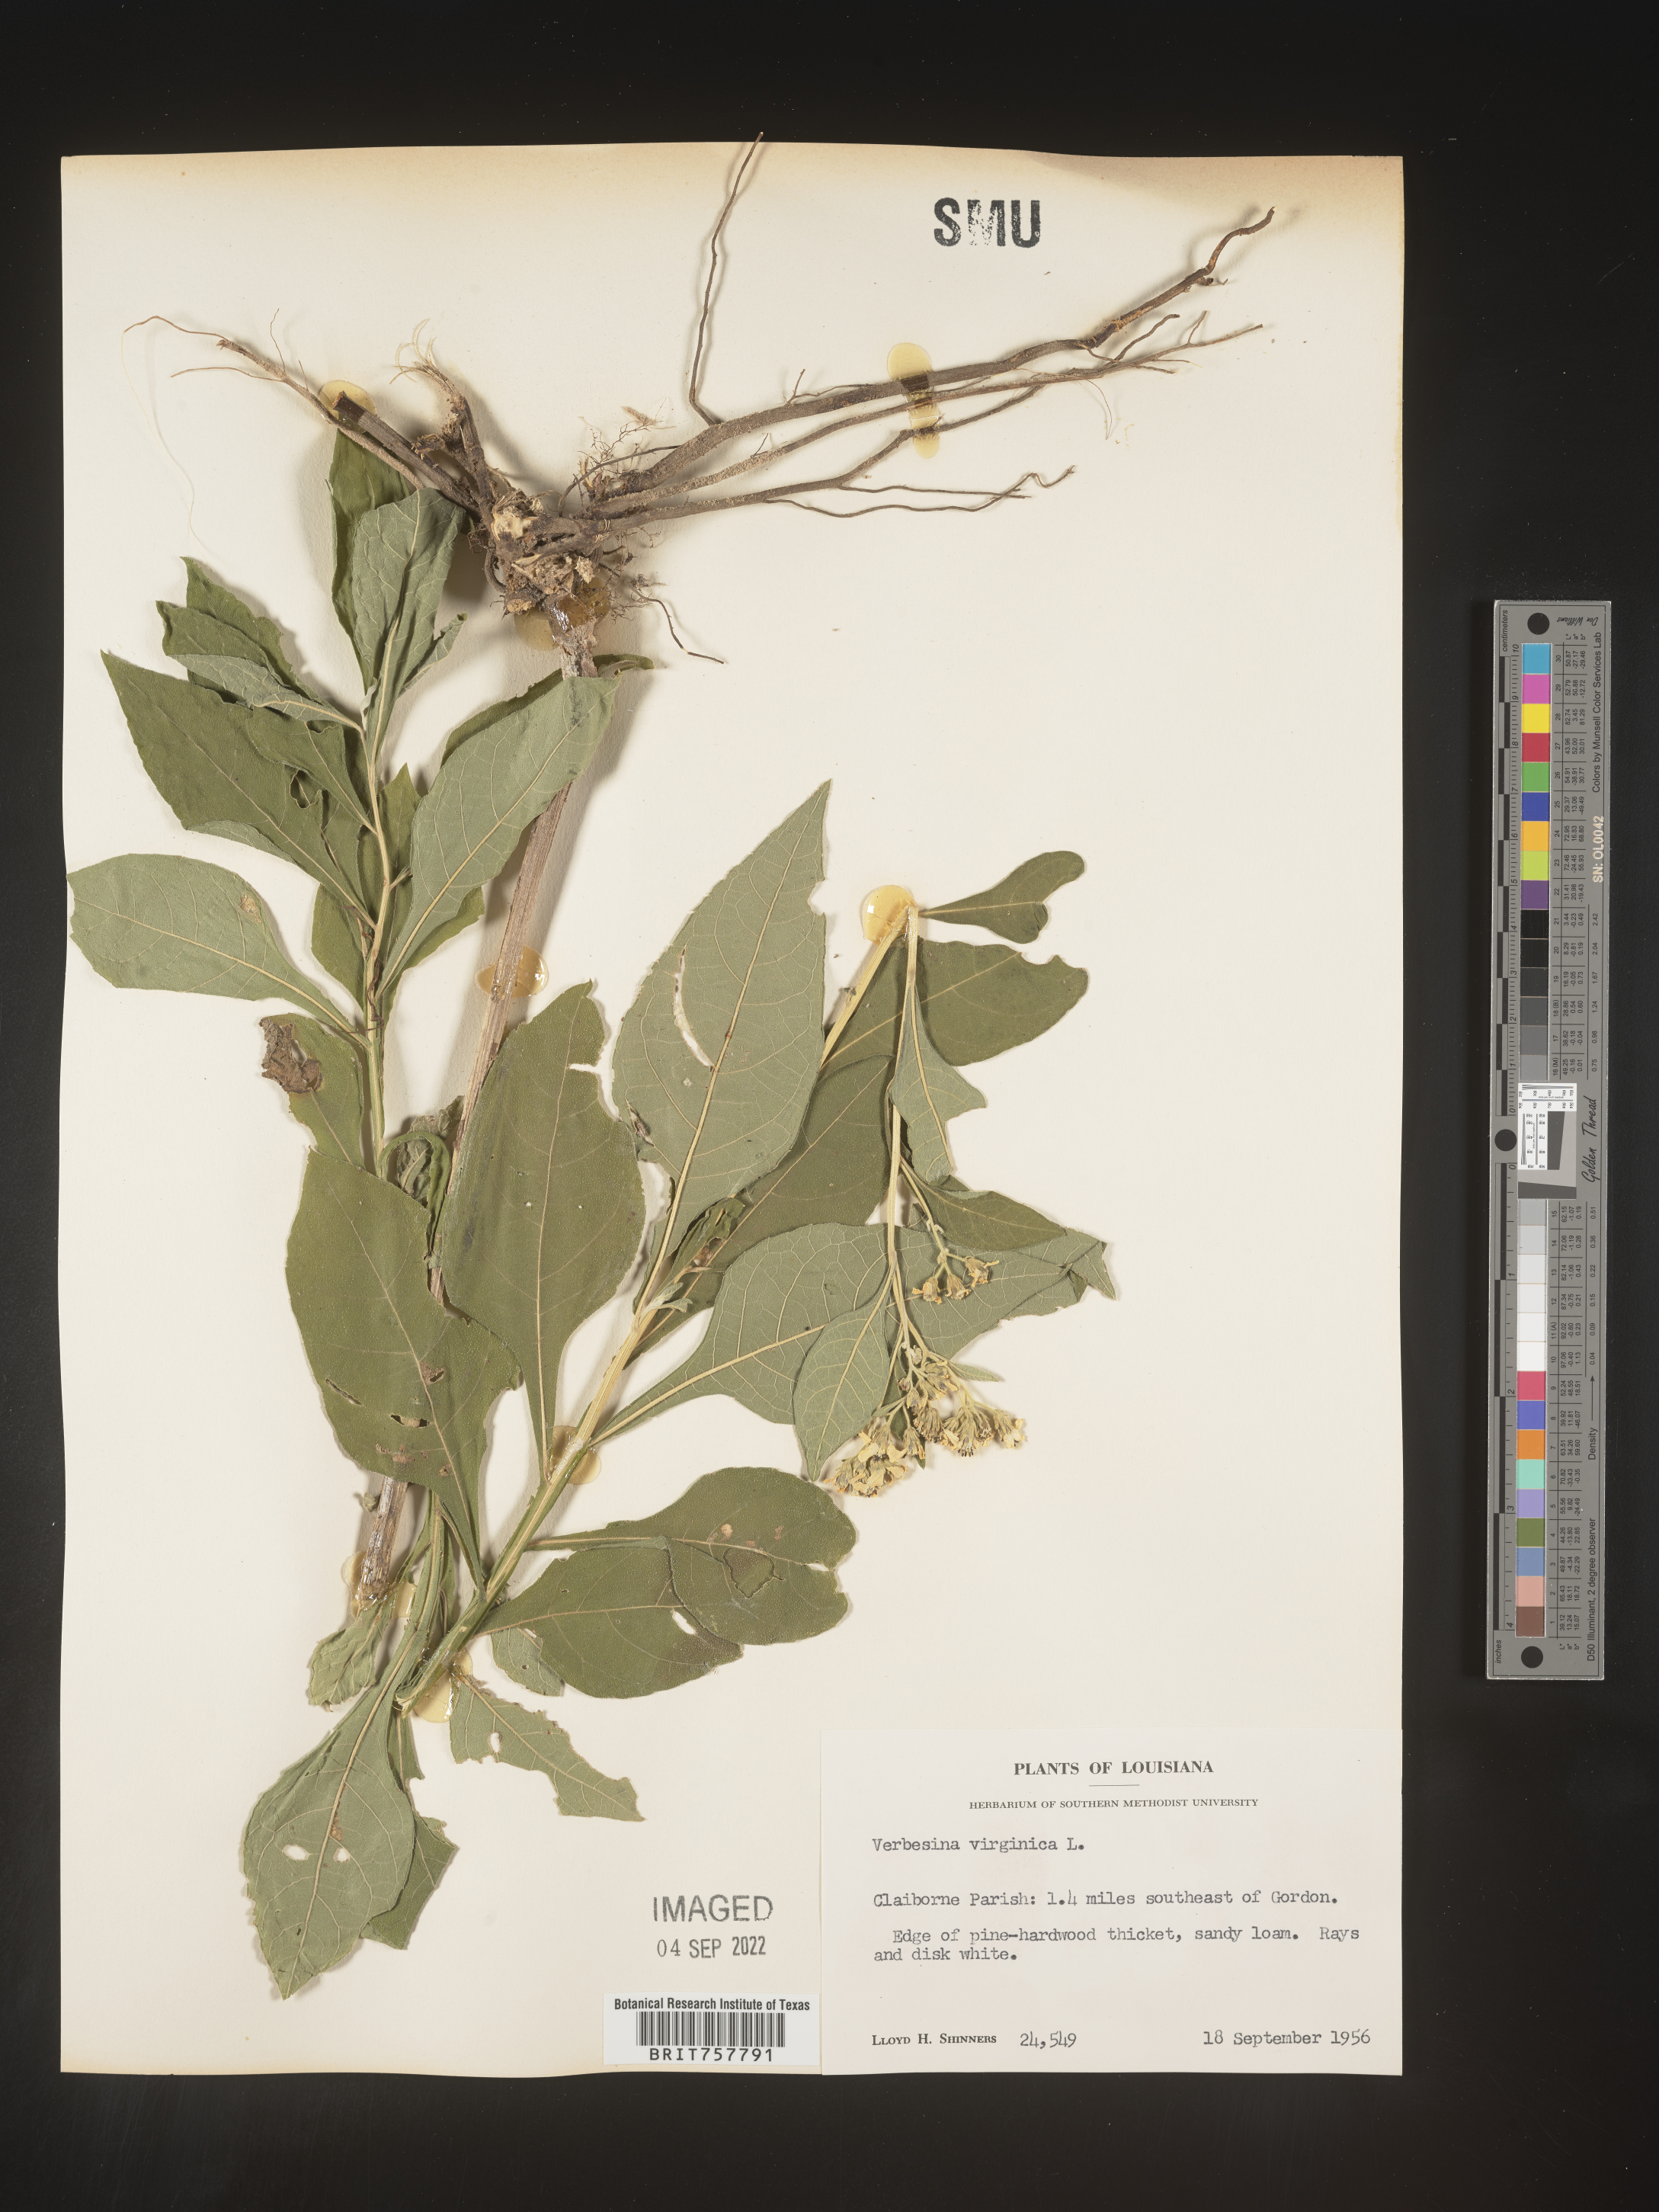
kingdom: Plantae
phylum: Tracheophyta
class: Magnoliopsida
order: Asterales
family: Asteraceae
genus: Verbesina
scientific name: Verbesina virginica
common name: Frostweed
